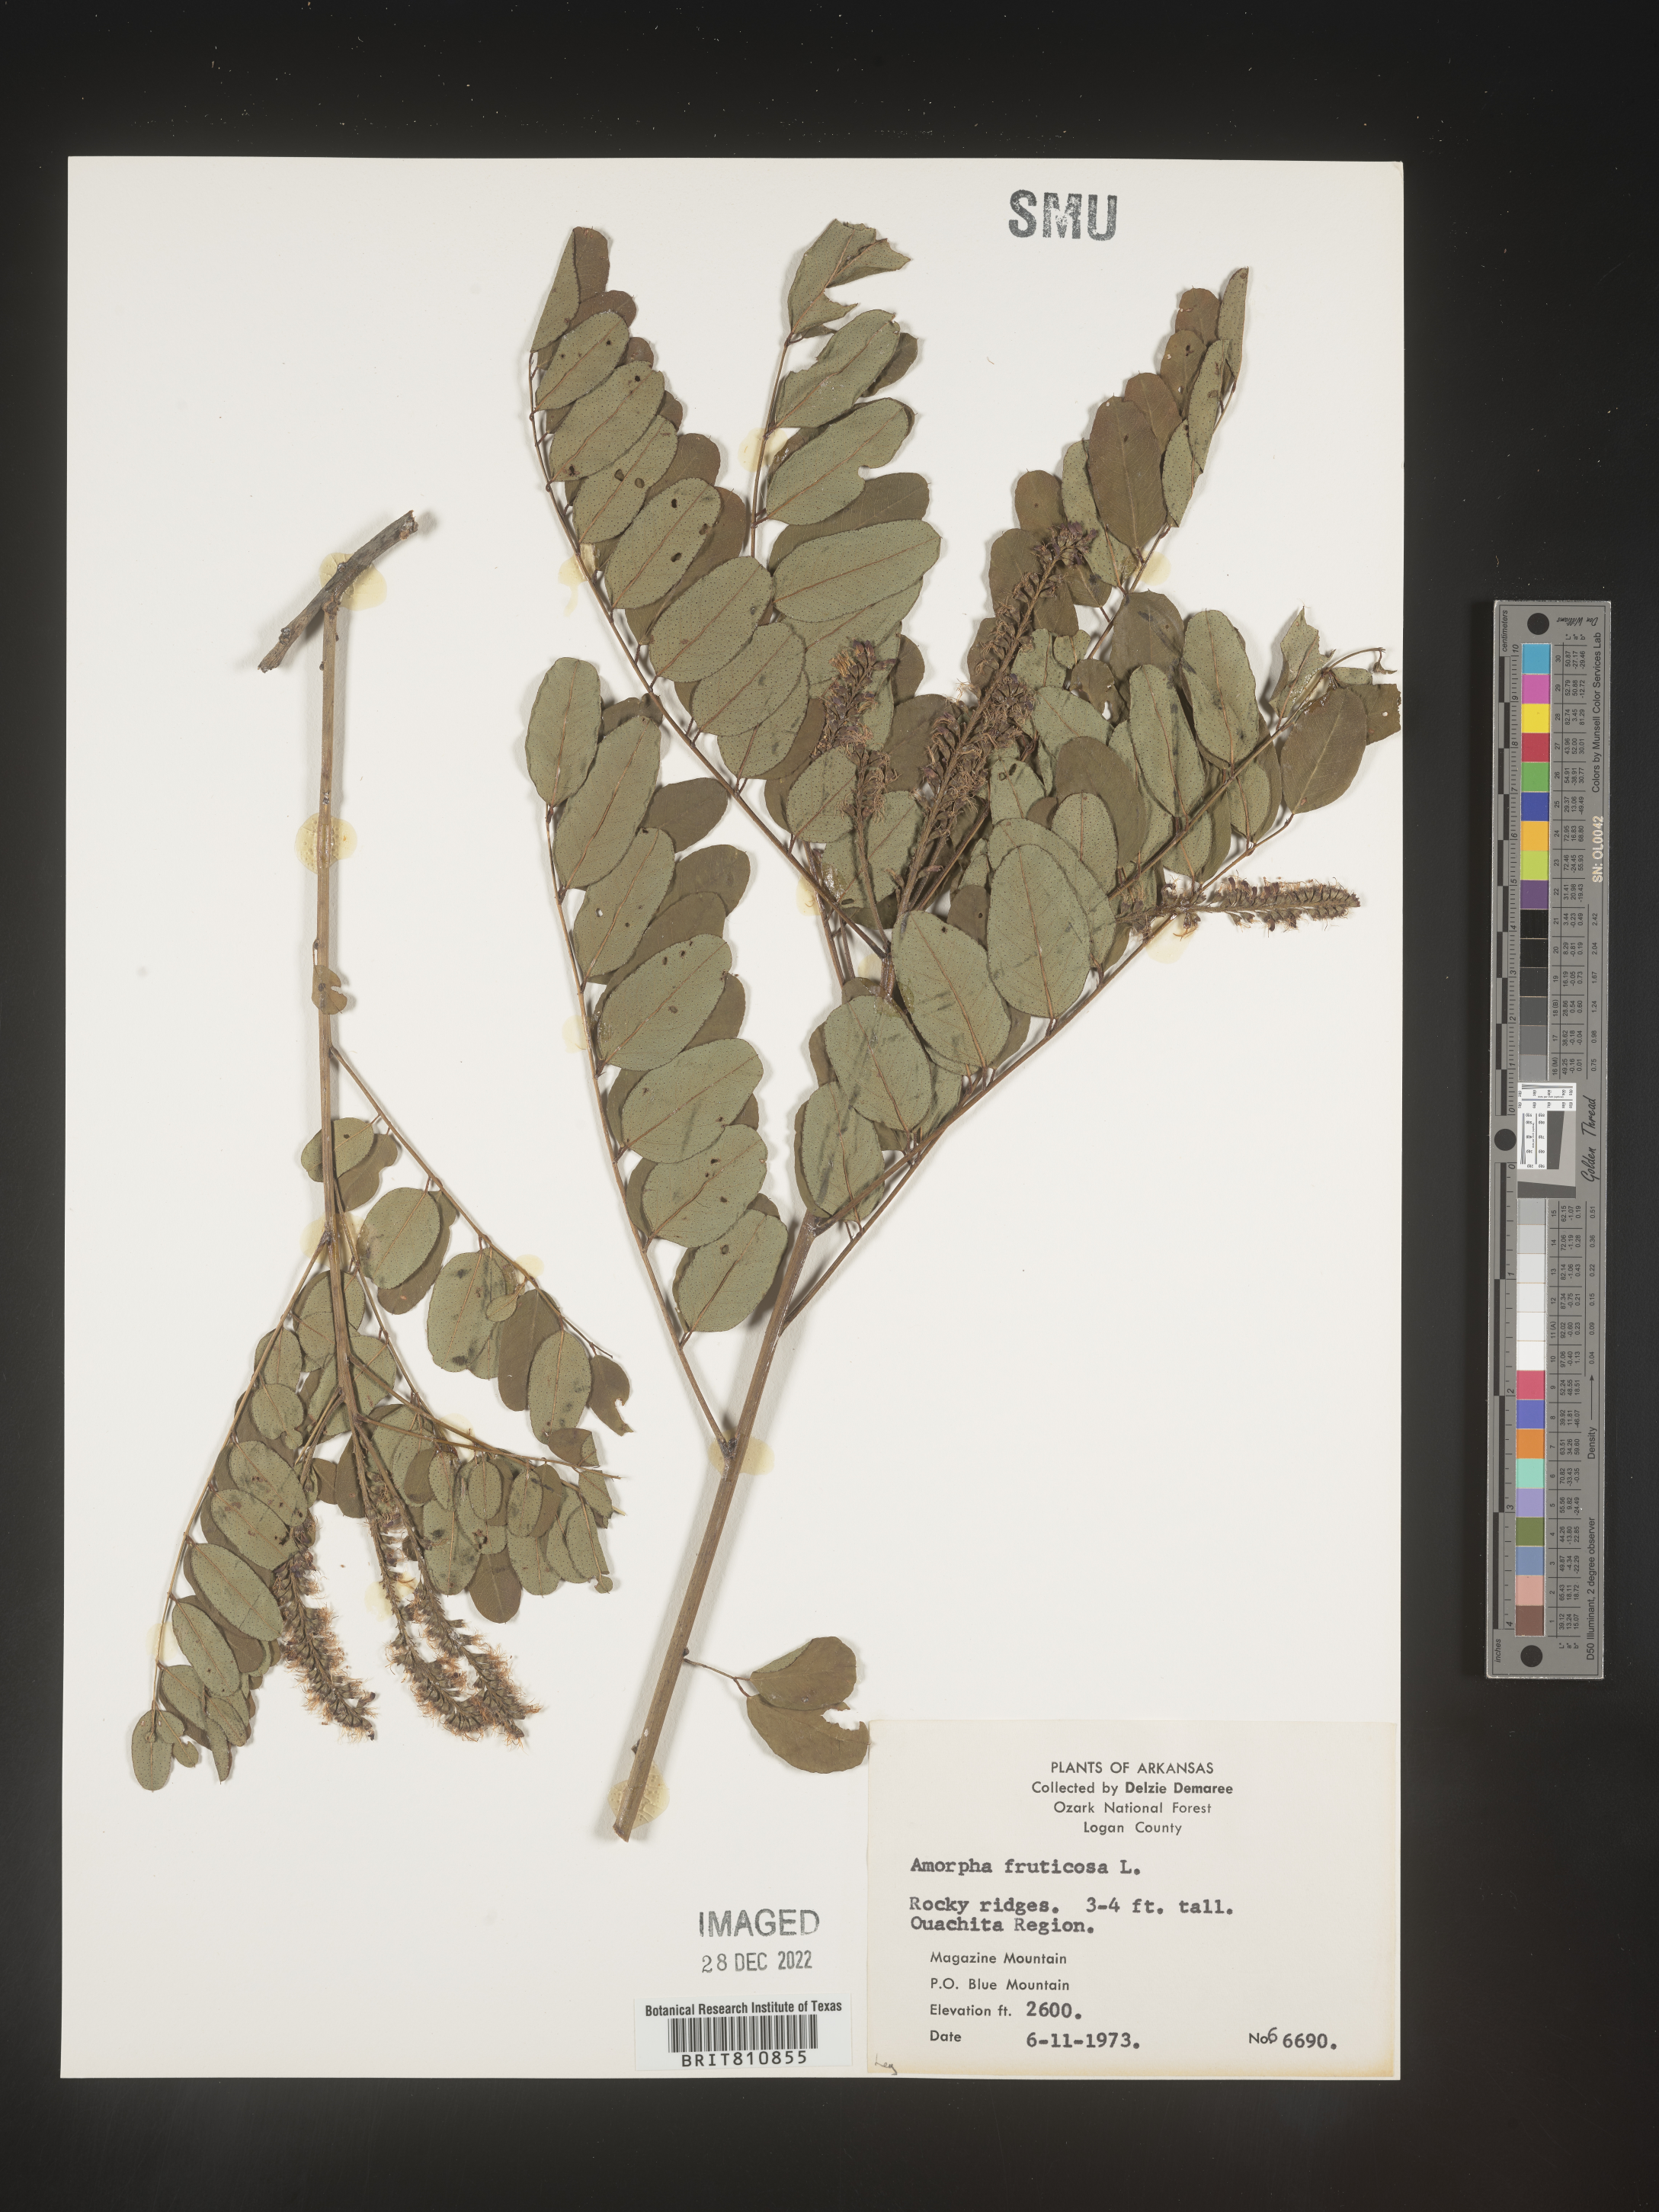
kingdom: Plantae
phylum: Tracheophyta
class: Magnoliopsida
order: Fabales
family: Fabaceae
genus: Amorpha
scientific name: Amorpha fruticosa
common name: False indigo
